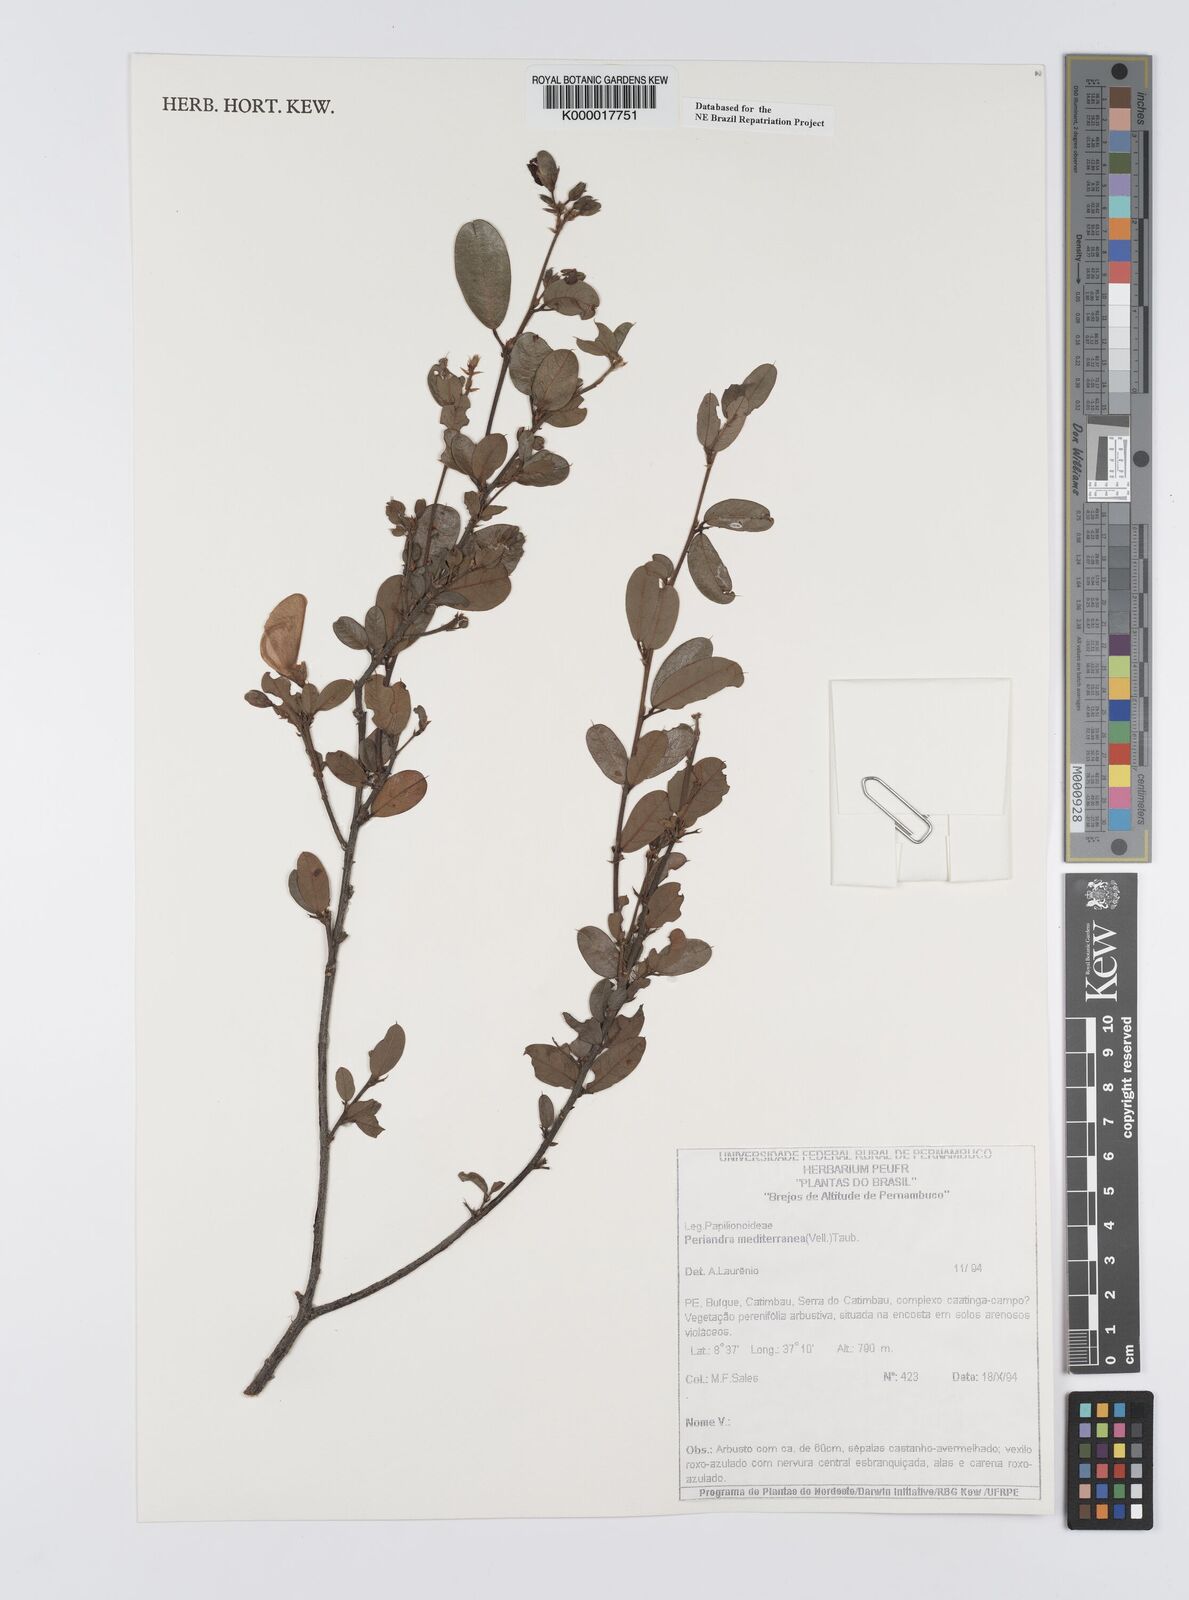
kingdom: Plantae
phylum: Tracheophyta
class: Magnoliopsida
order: Fabales
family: Fabaceae
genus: Periandra
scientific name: Periandra mediterranea
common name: Brazilian licorice
